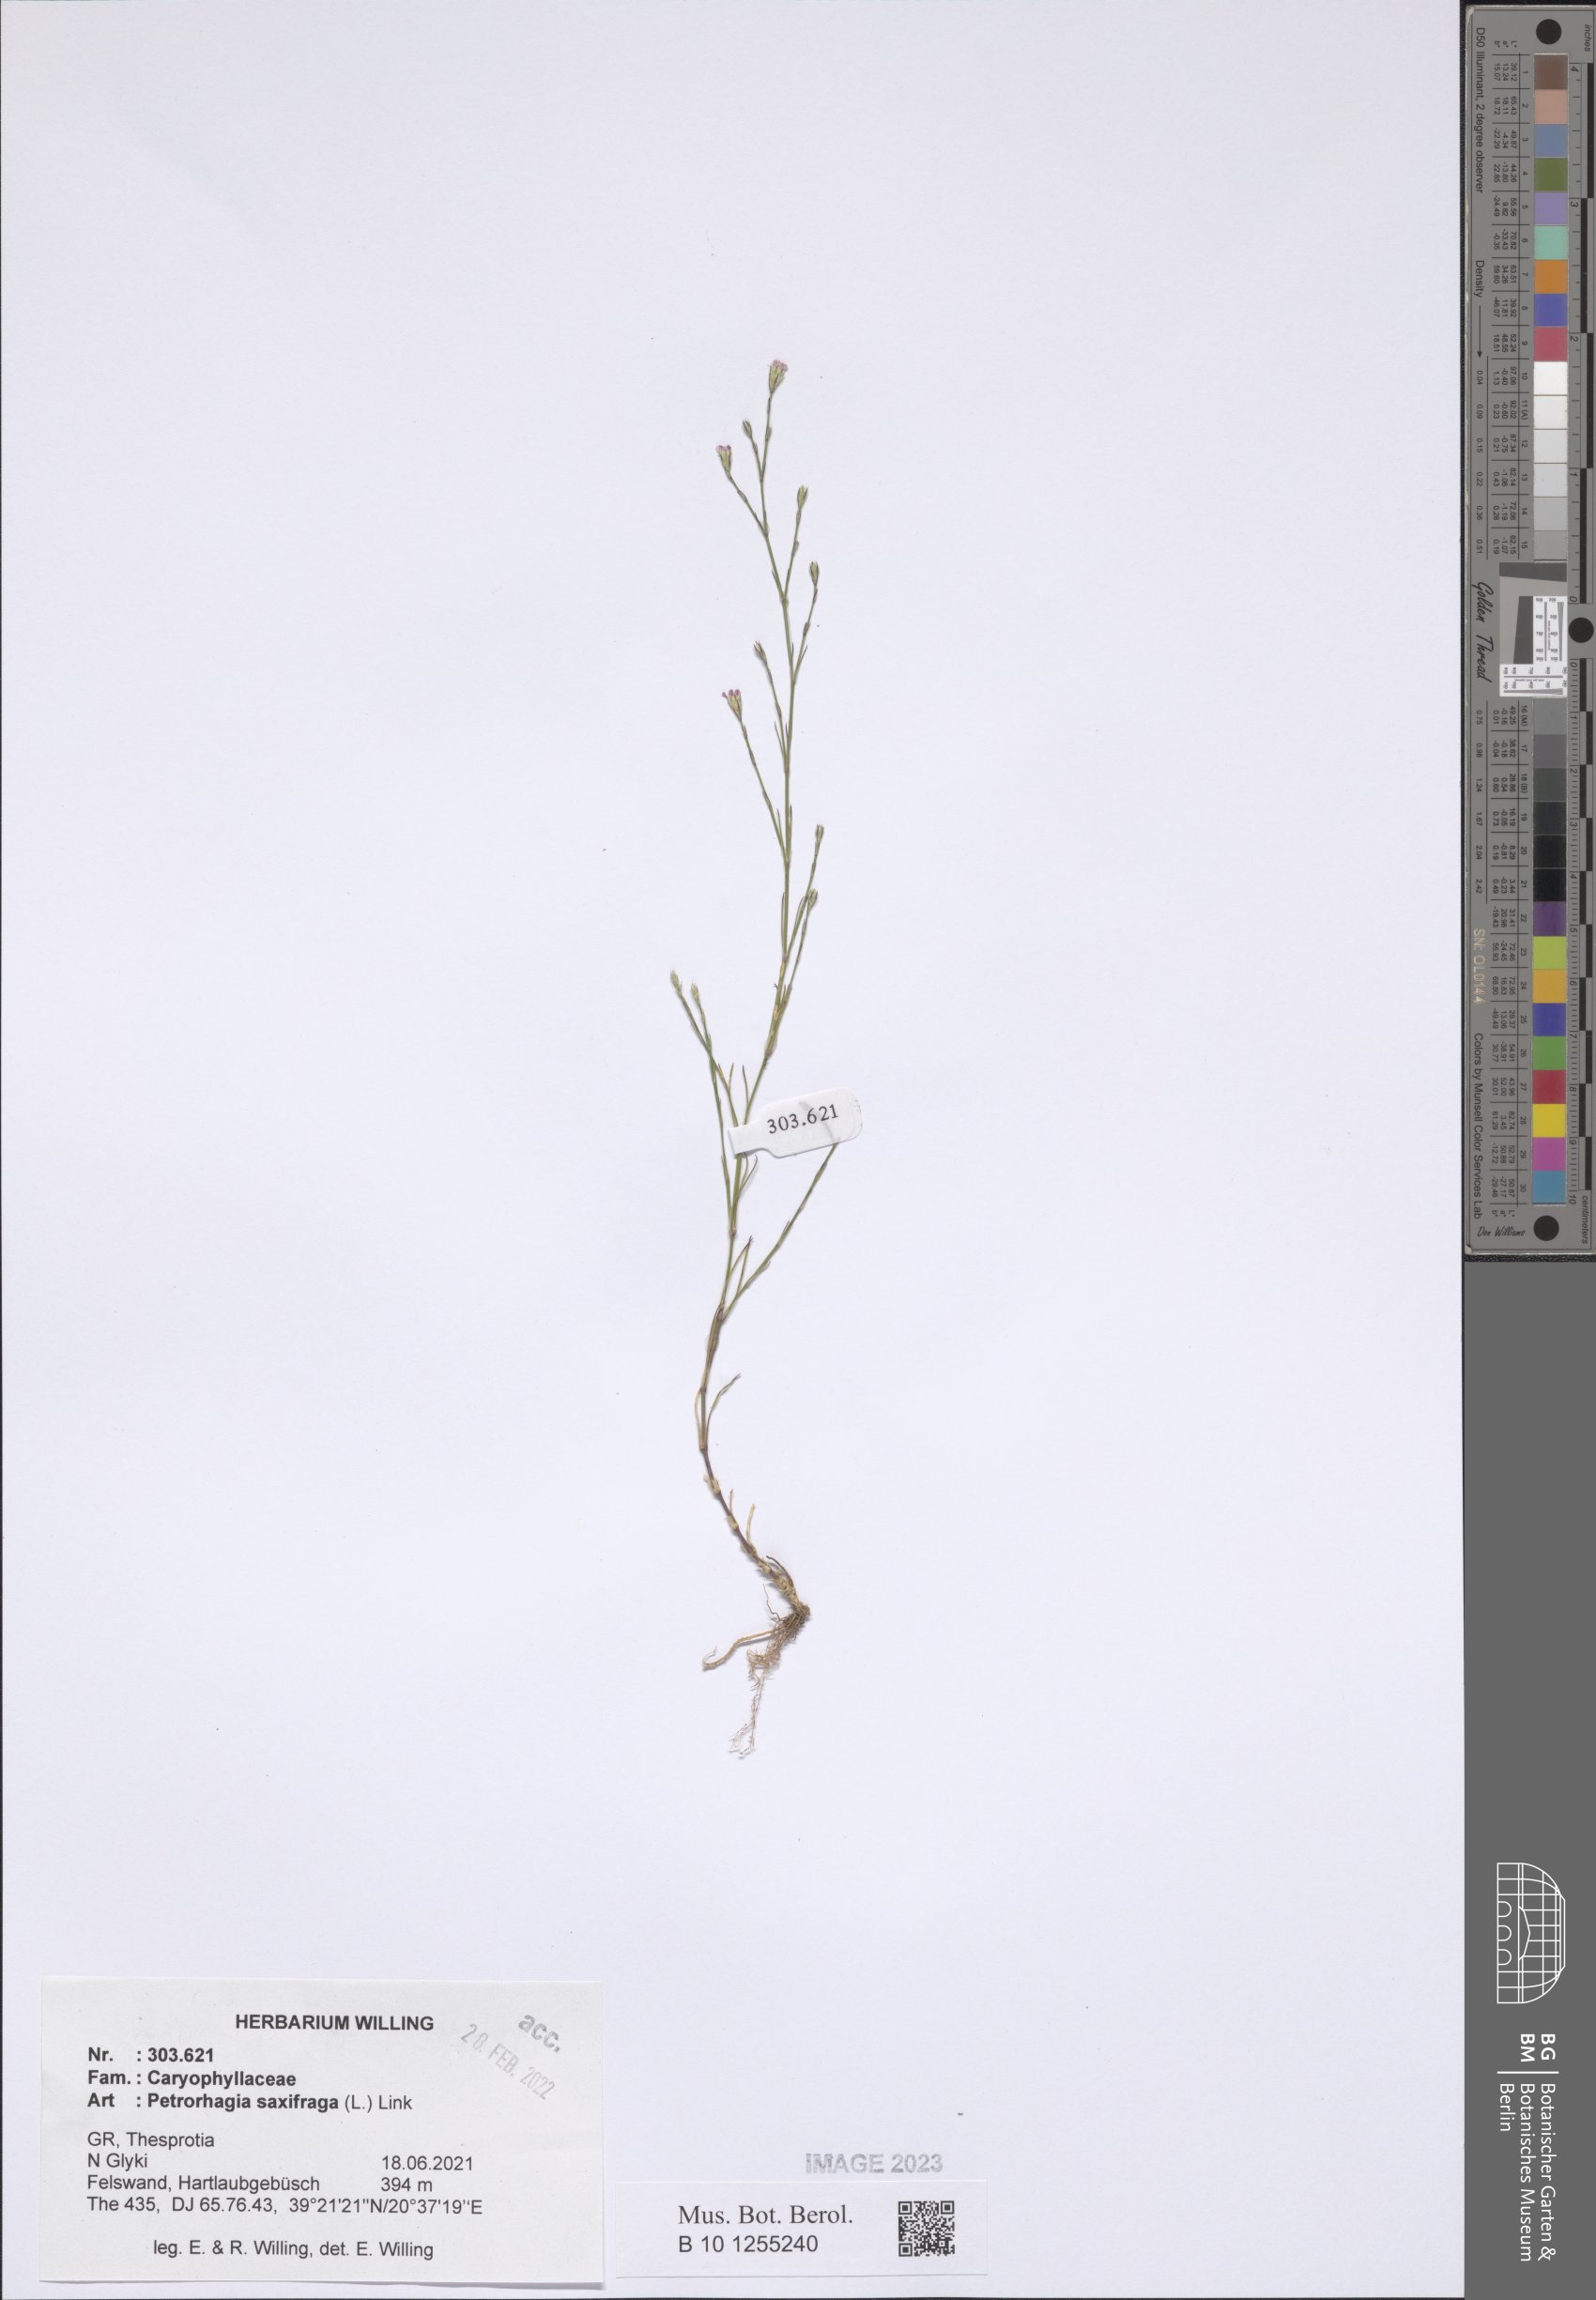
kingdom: Plantae
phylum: Tracheophyta
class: Magnoliopsida
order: Caryophyllales
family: Caryophyllaceae
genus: Petrorhagia
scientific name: Petrorhagia saxifraga
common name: Tunicflower
